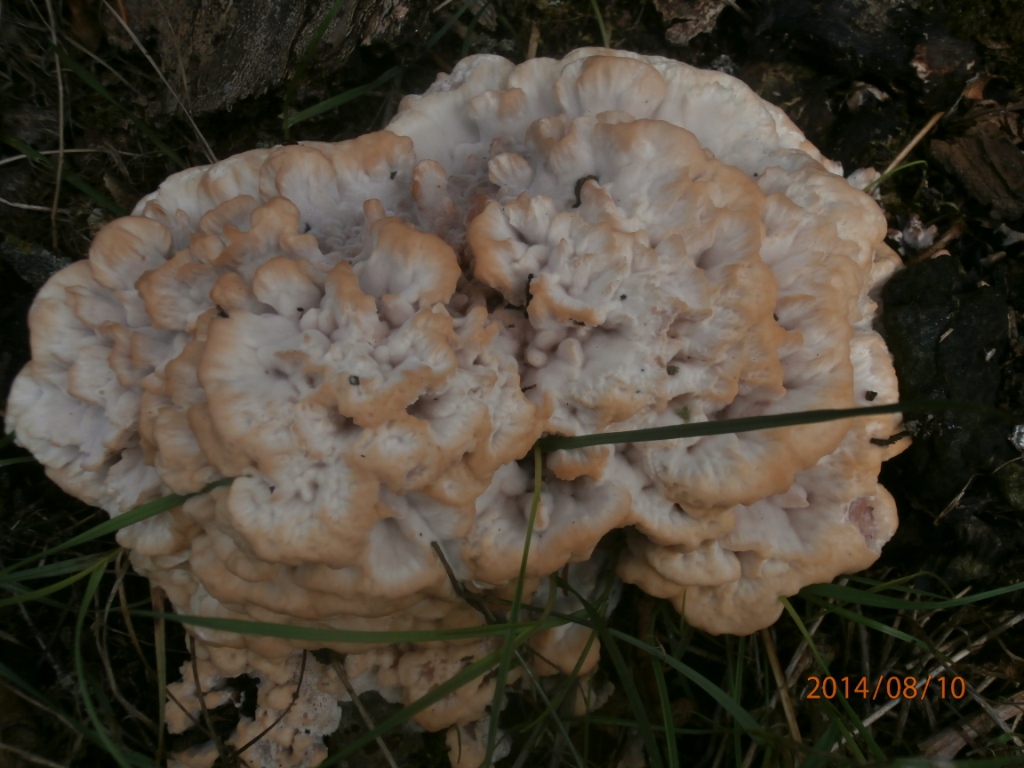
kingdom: Fungi
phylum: Basidiomycota
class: Agaricomycetes
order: Polyporales
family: Podoscyphaceae
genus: Abortiporus
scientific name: Abortiporus biennis
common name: rødmende pjalteporesvamp
